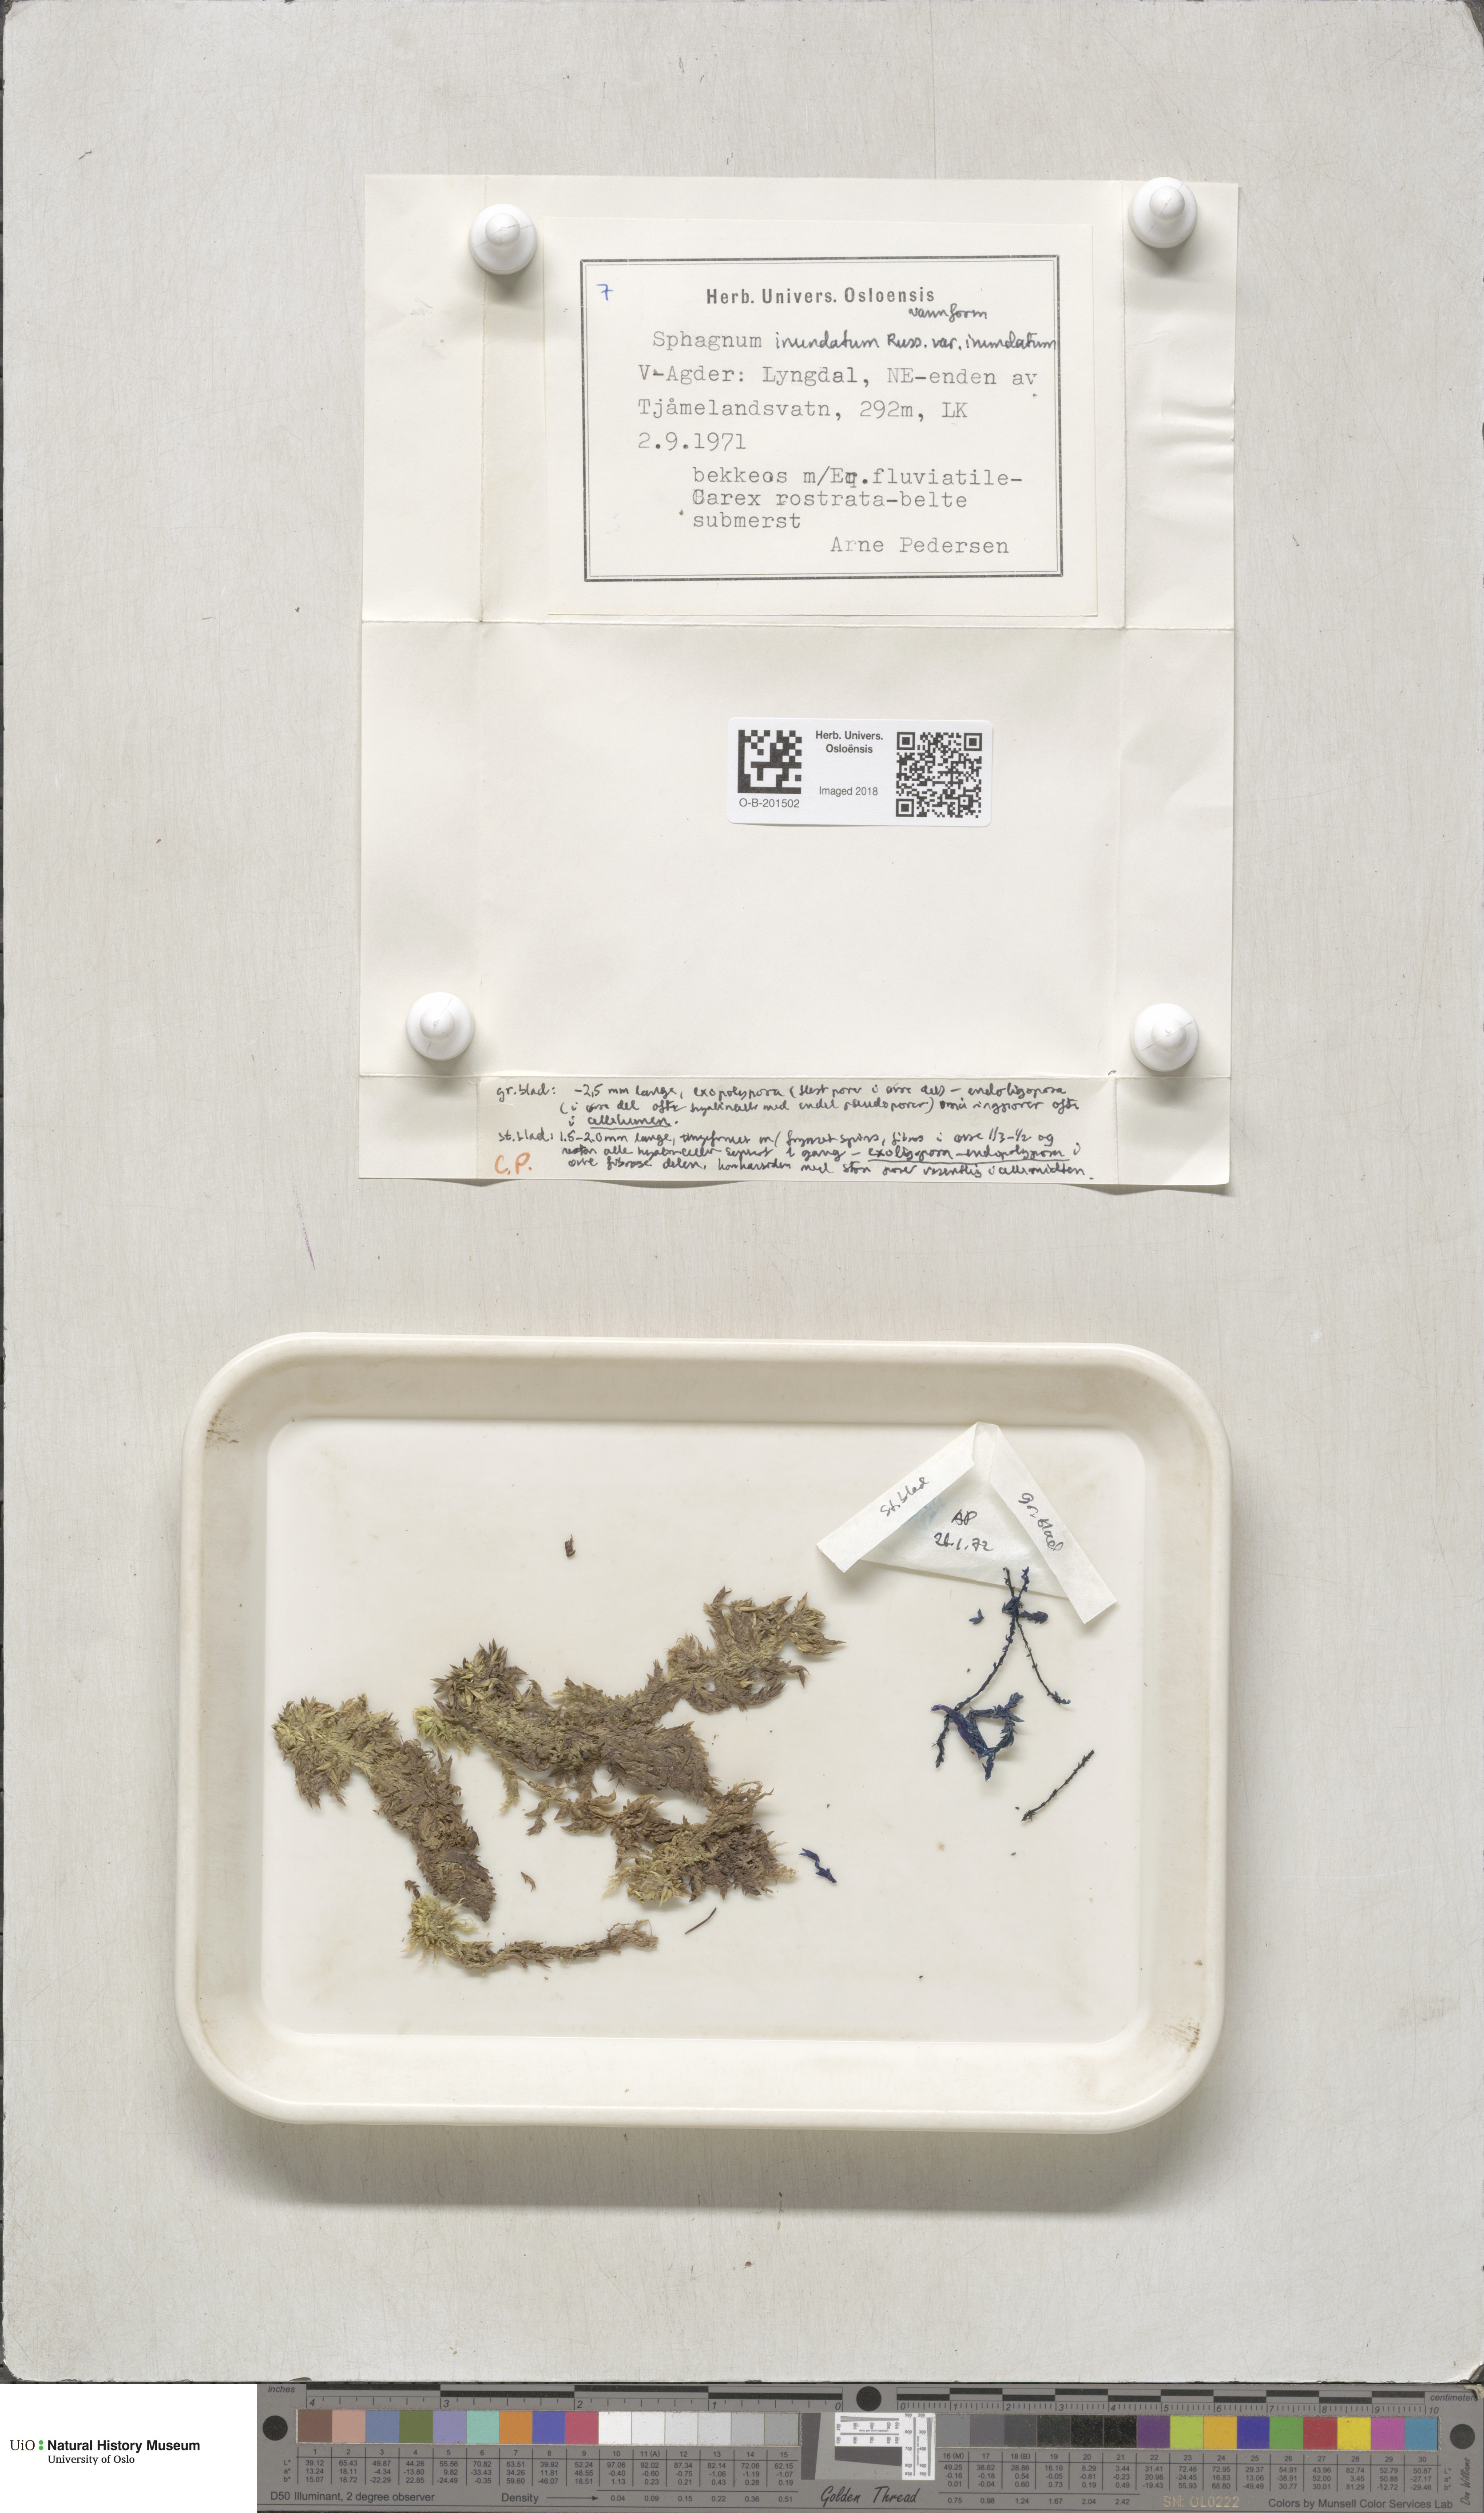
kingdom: Plantae
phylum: Bryophyta
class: Sphagnopsida
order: Sphagnales
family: Sphagnaceae
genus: Sphagnum
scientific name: Sphagnum inundatum
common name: Lesser cow-horn bog-moss
